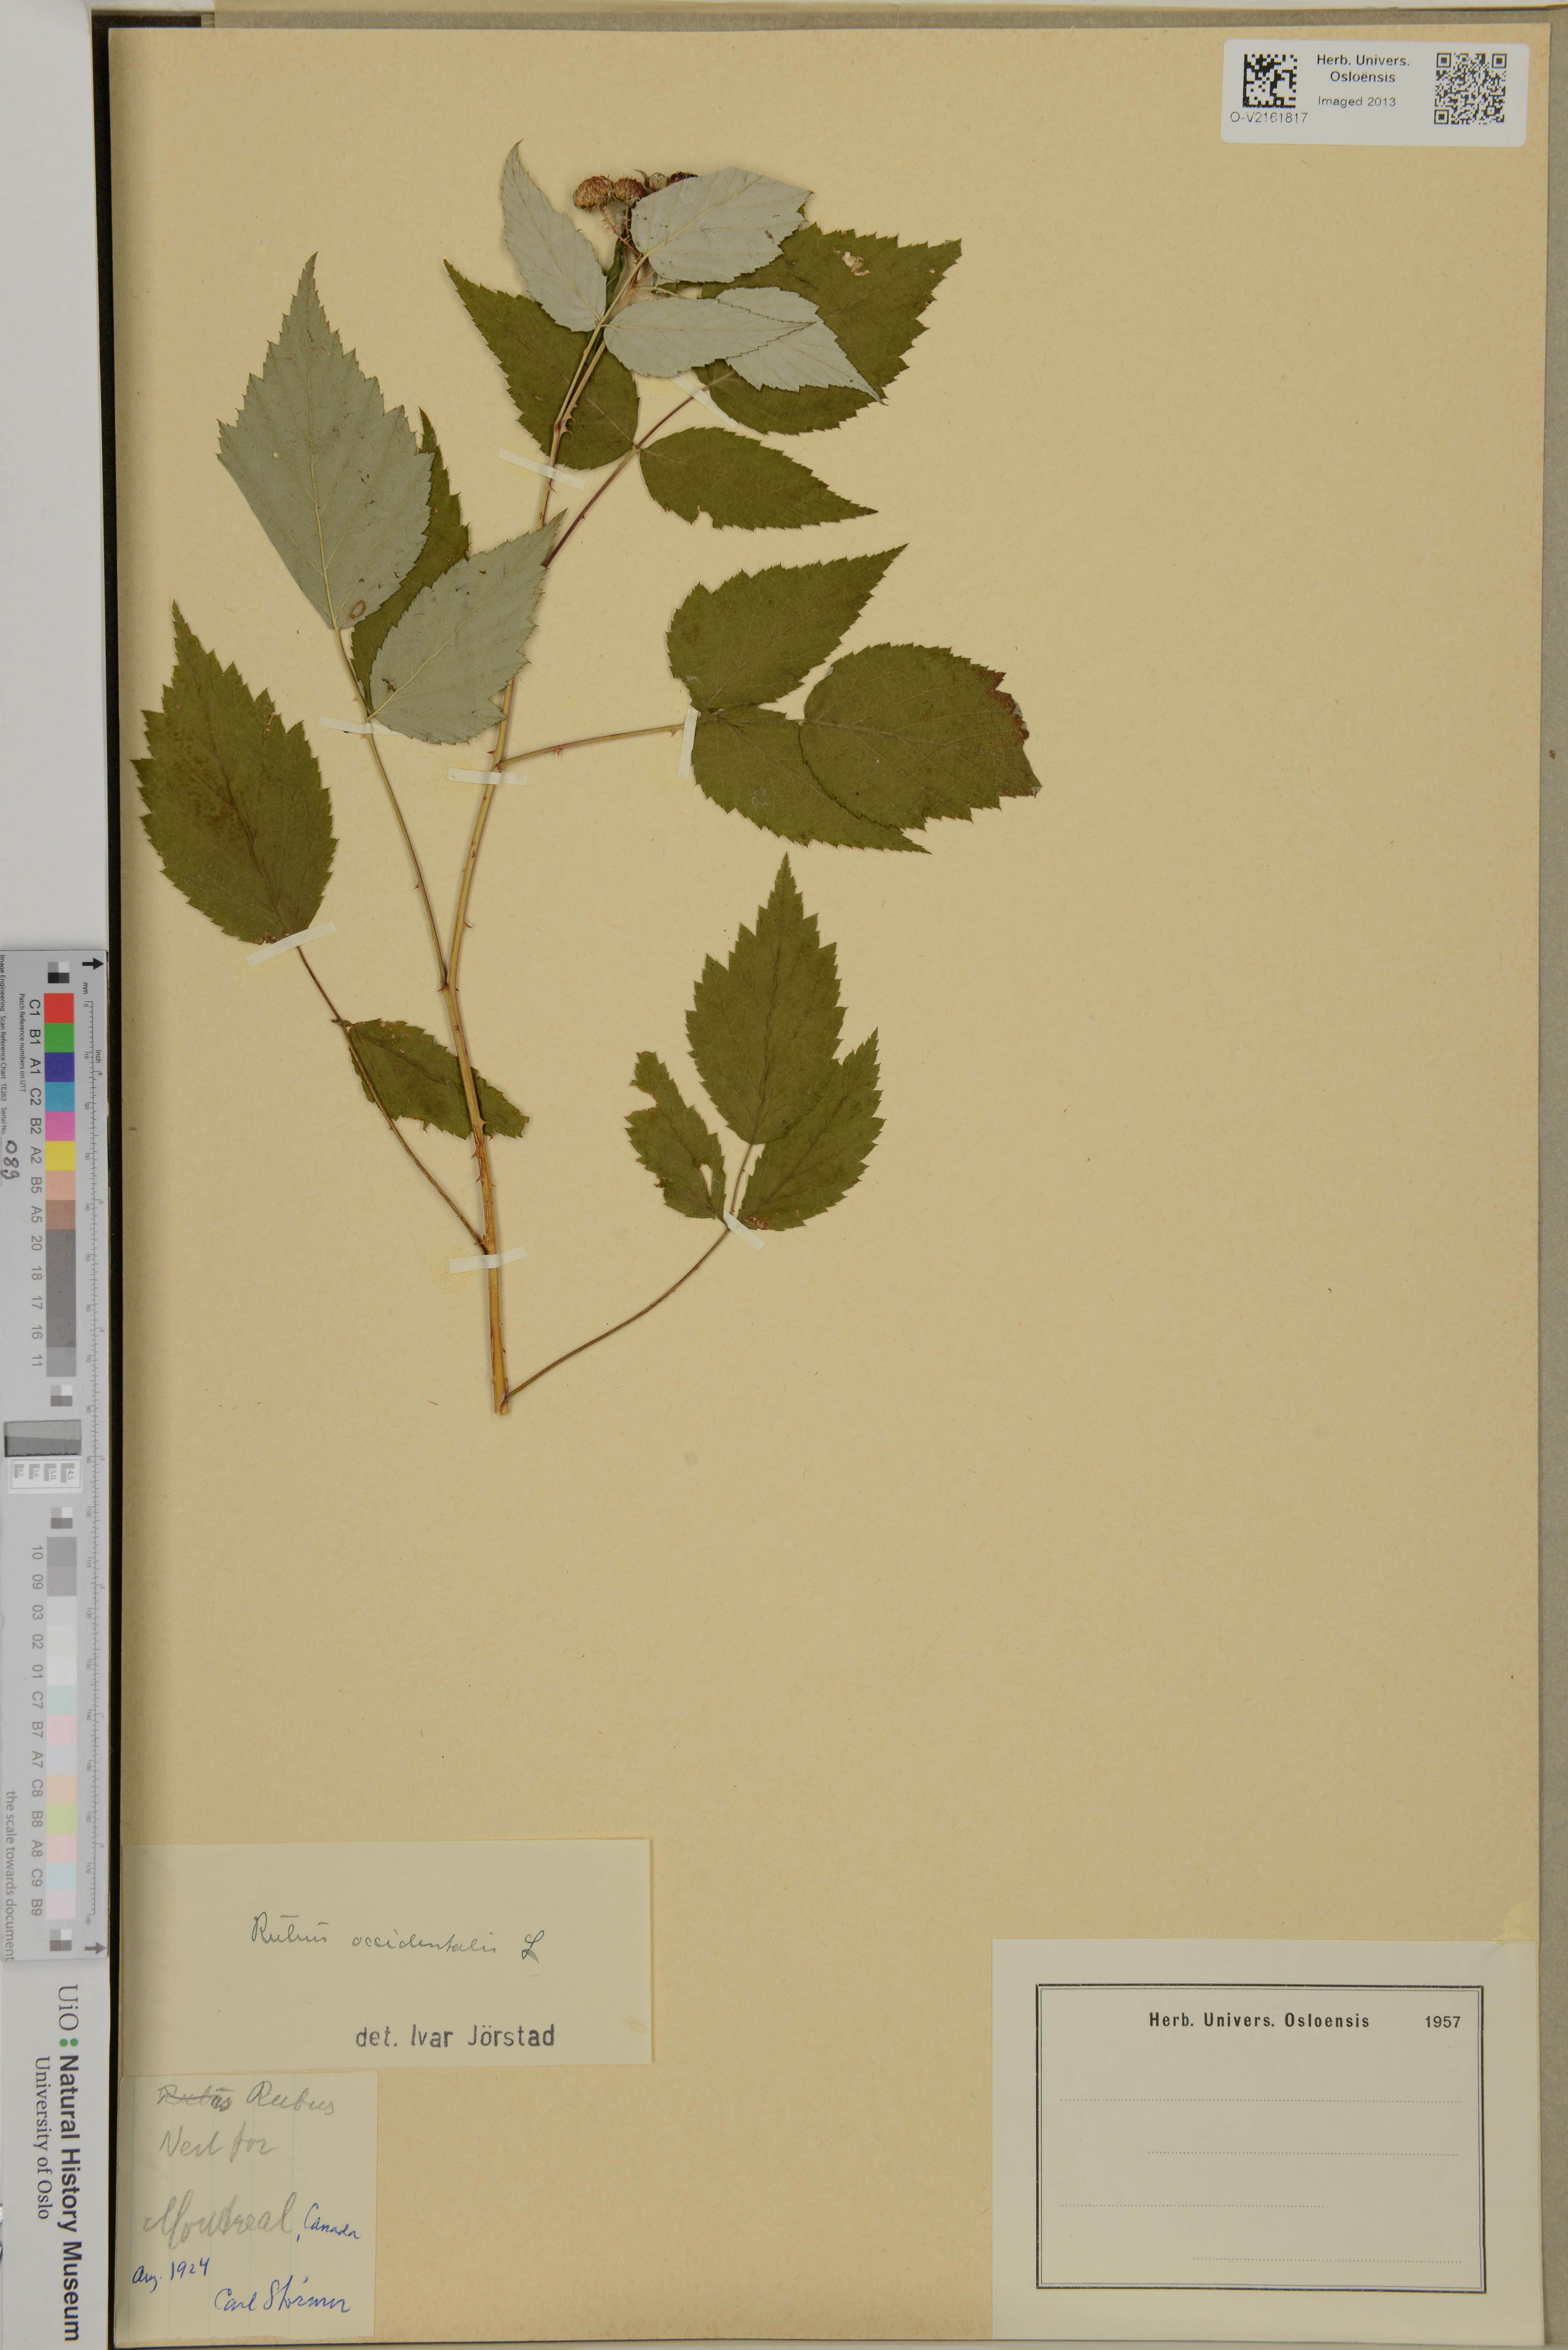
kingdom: Plantae
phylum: Tracheophyta
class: Magnoliopsida
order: Rosales
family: Rosaceae
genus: Rubus
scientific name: Rubus occidentalis
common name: Black raspberry
